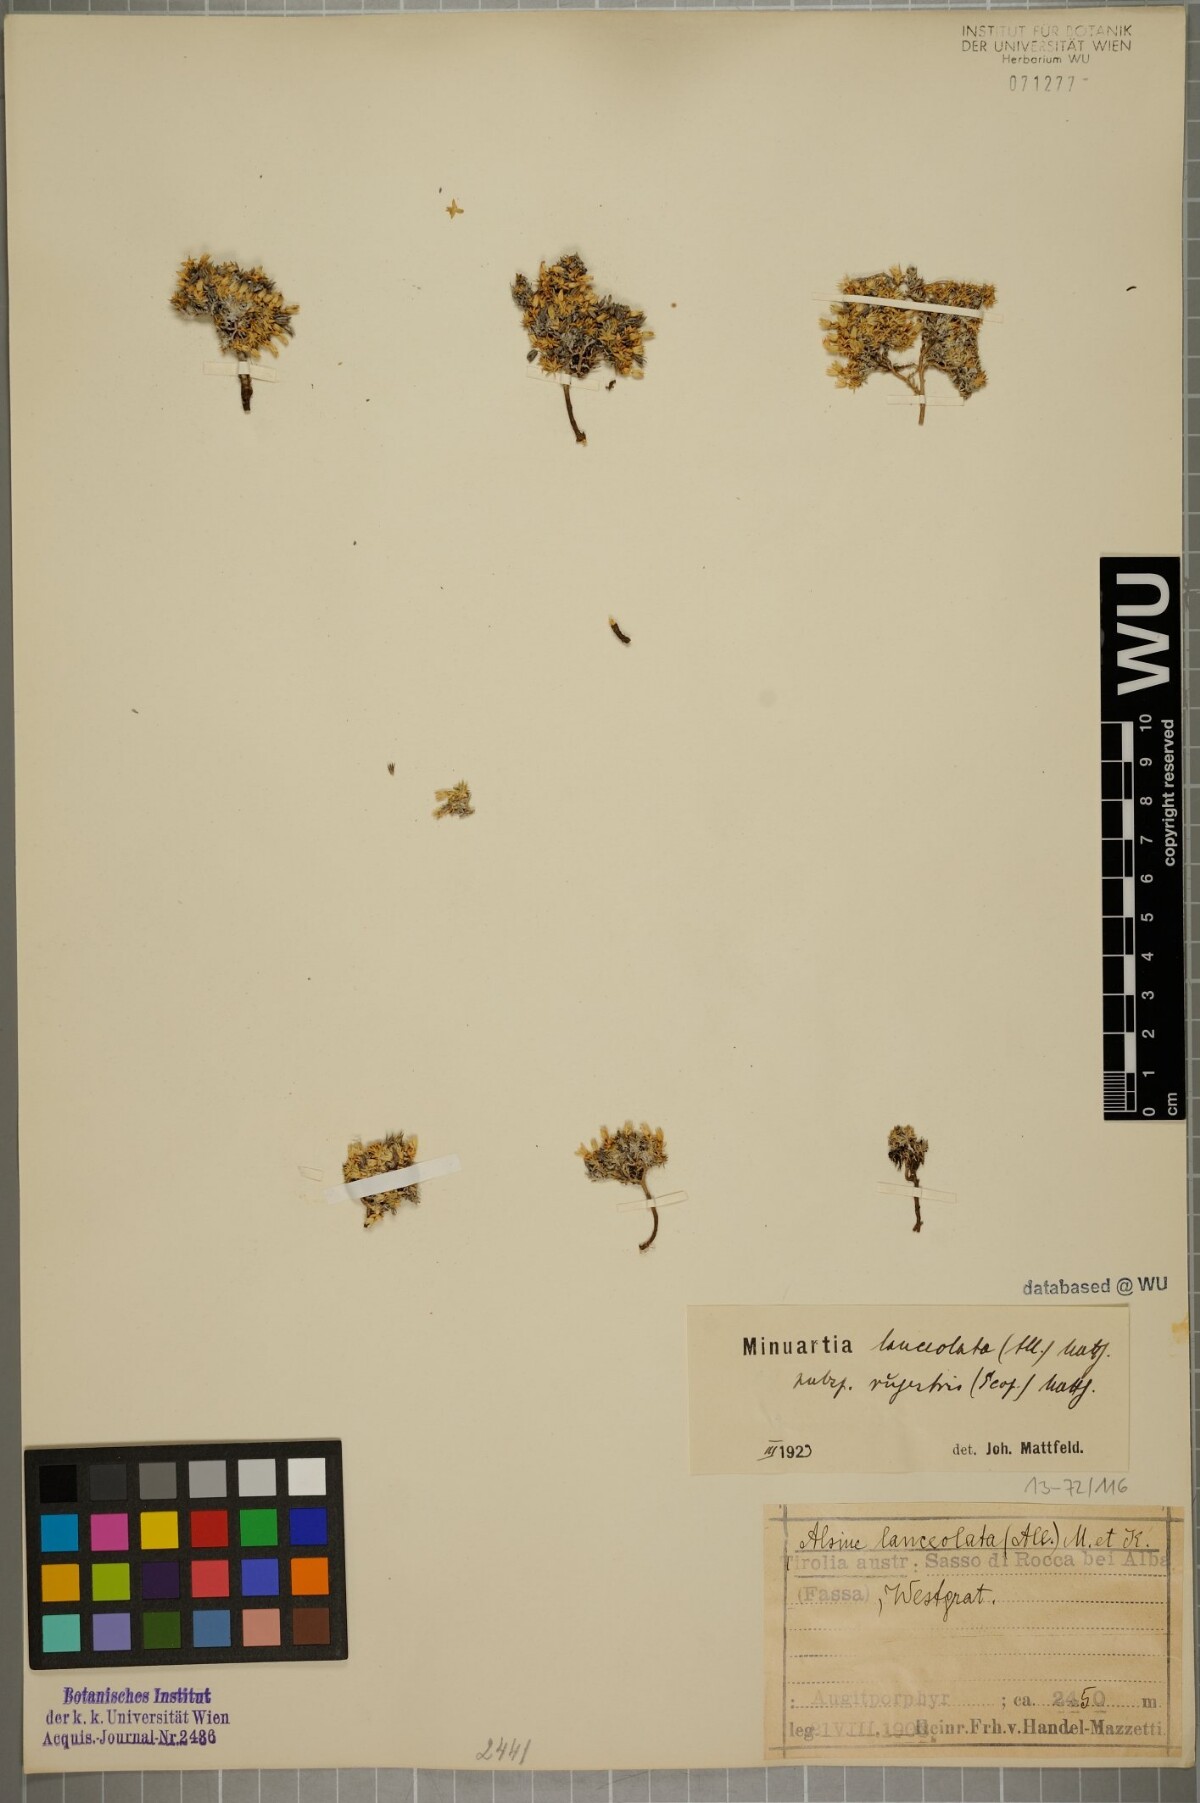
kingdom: Plantae
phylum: Tracheophyta
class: Magnoliopsida
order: Caryophyllales
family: Caryophyllaceae
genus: Facchinia
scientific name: Facchinia rupestris
